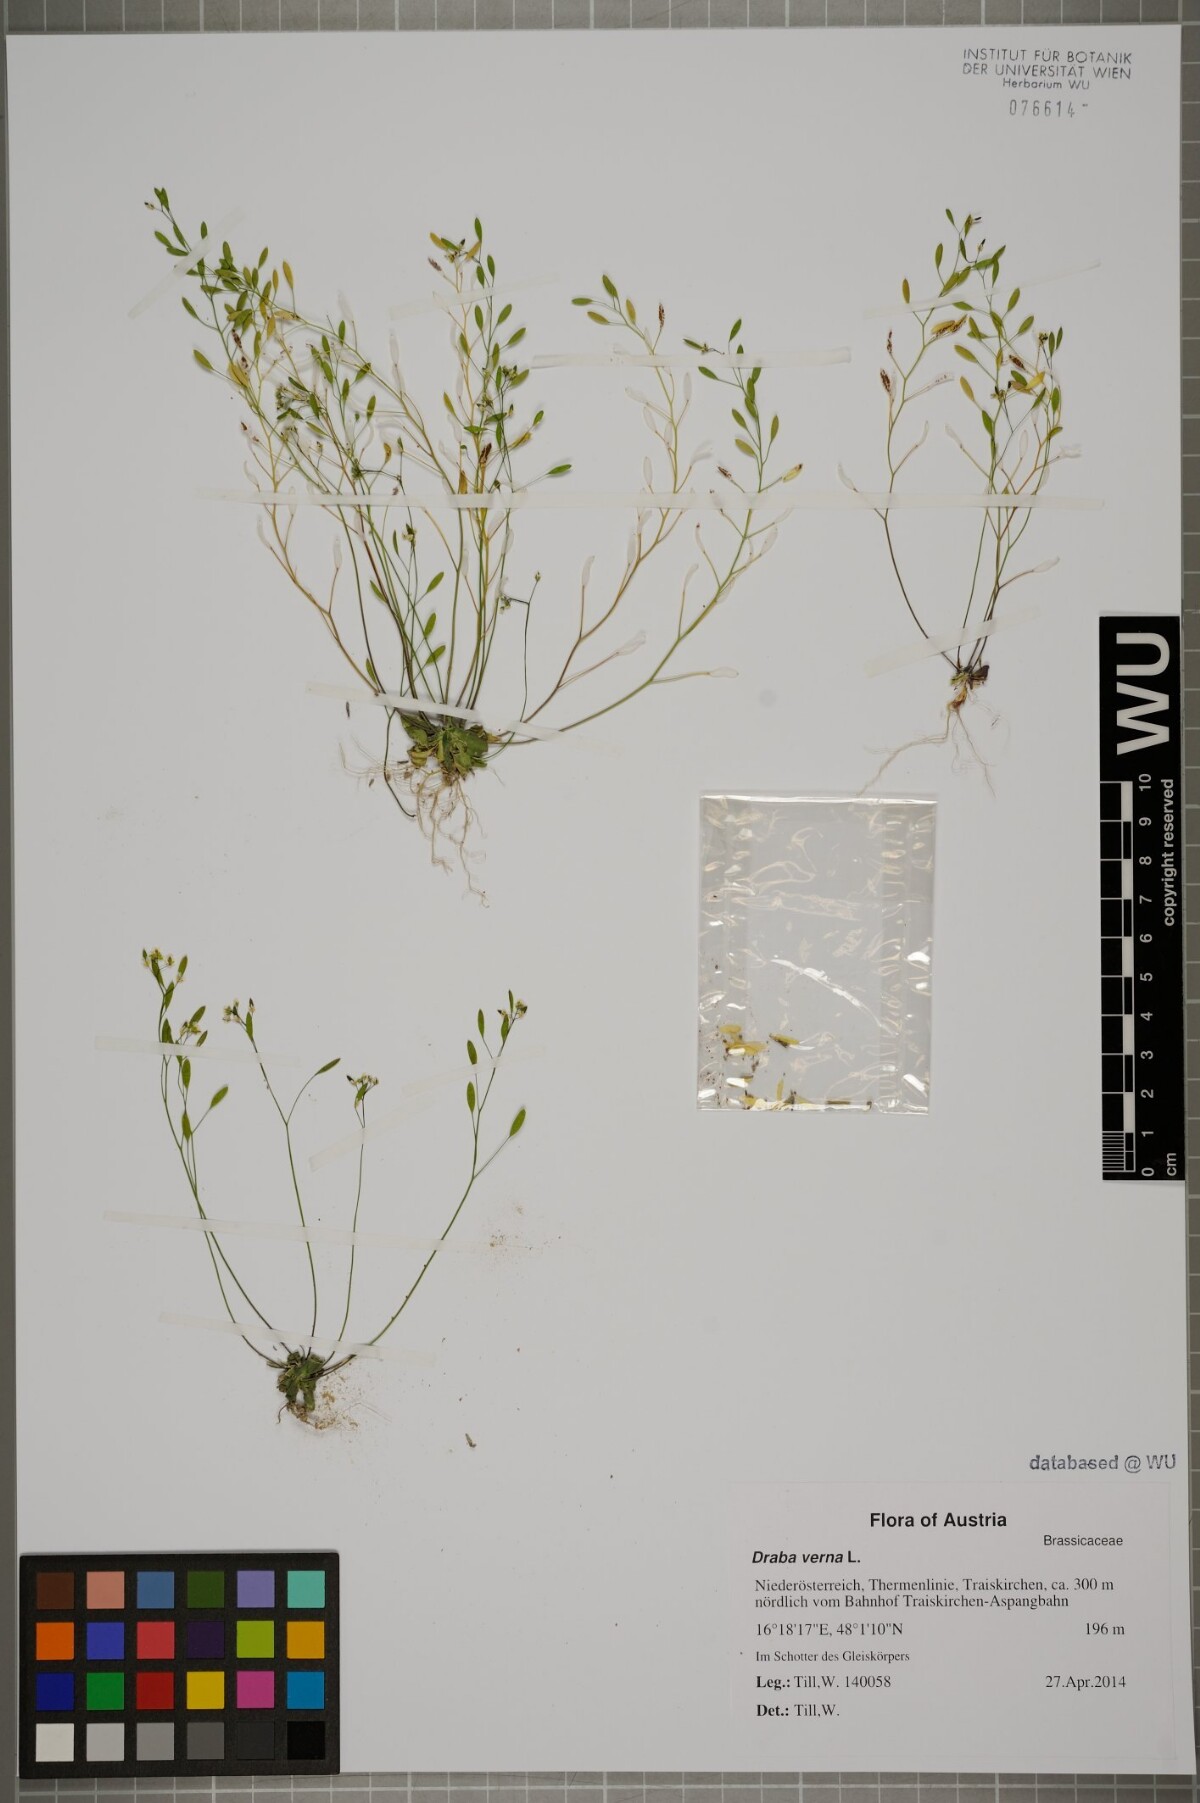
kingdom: Plantae
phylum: Tracheophyta
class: Magnoliopsida
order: Brassicales
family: Brassicaceae
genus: Draba
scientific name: Draba verna
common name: Spring draba
